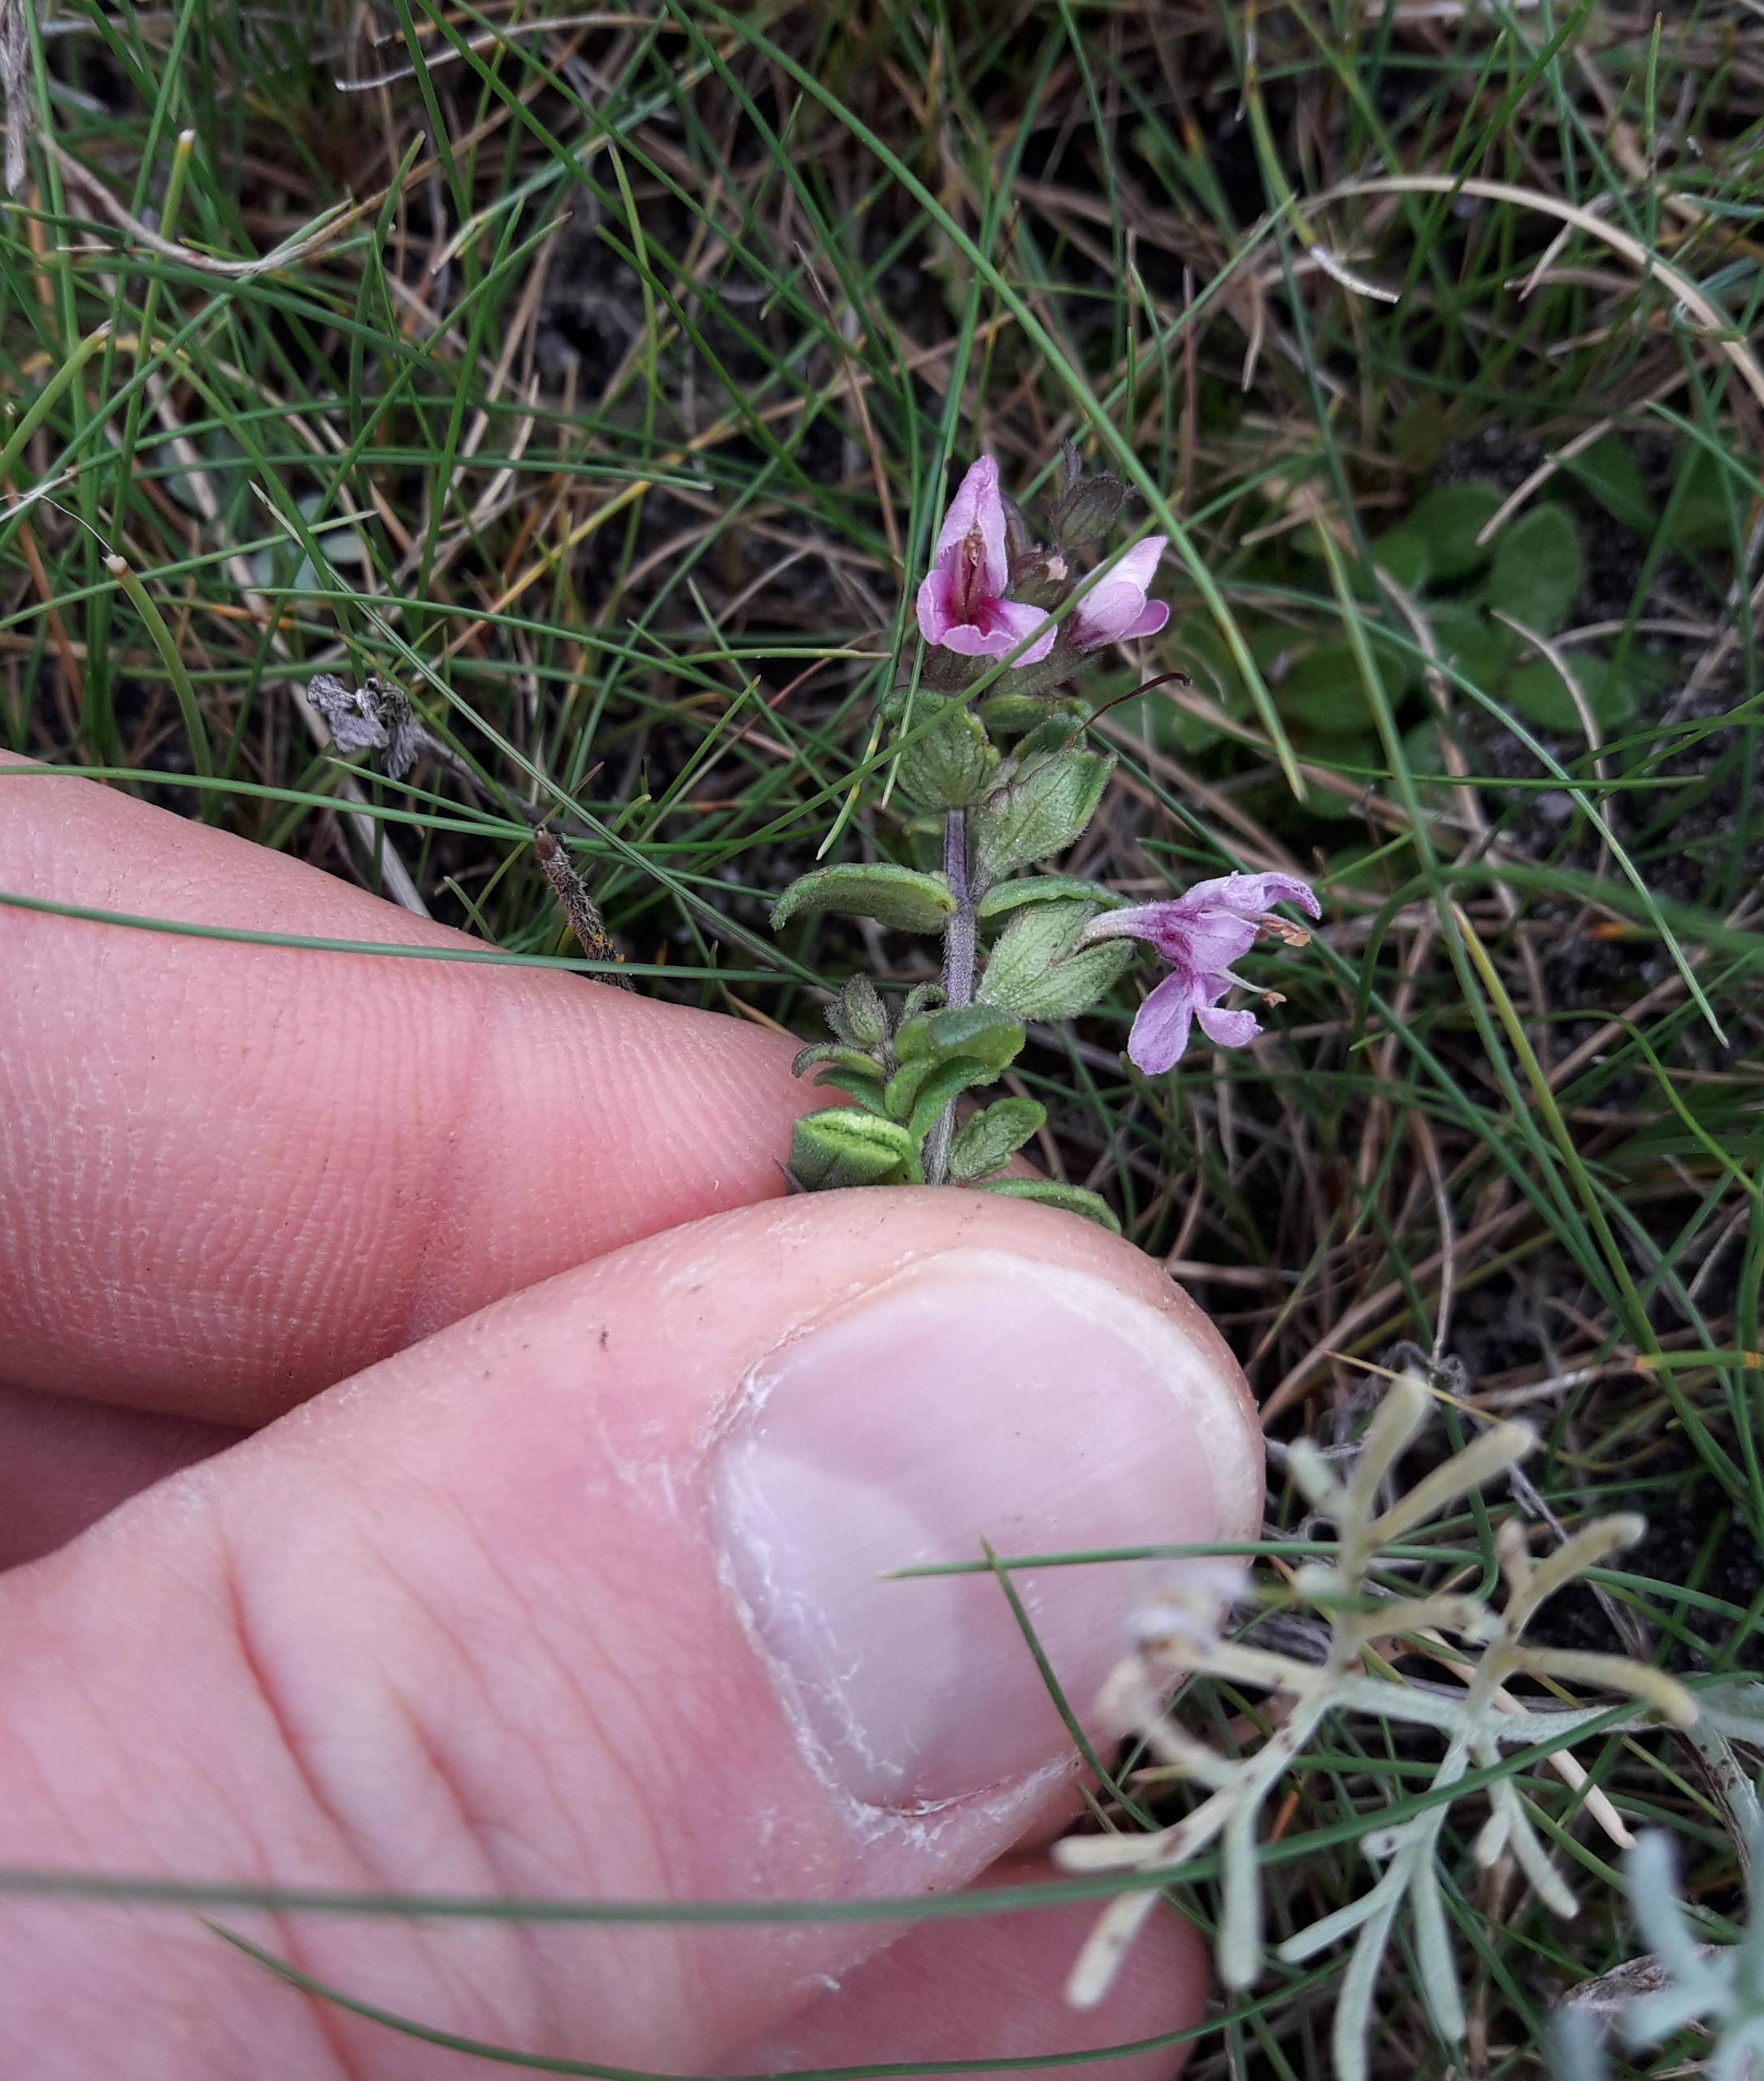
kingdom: Plantae
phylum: Tracheophyta
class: Magnoliopsida
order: Lamiales
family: Orobanchaceae
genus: Odontites
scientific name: Odontites litoralis
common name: Strand-rødtop
